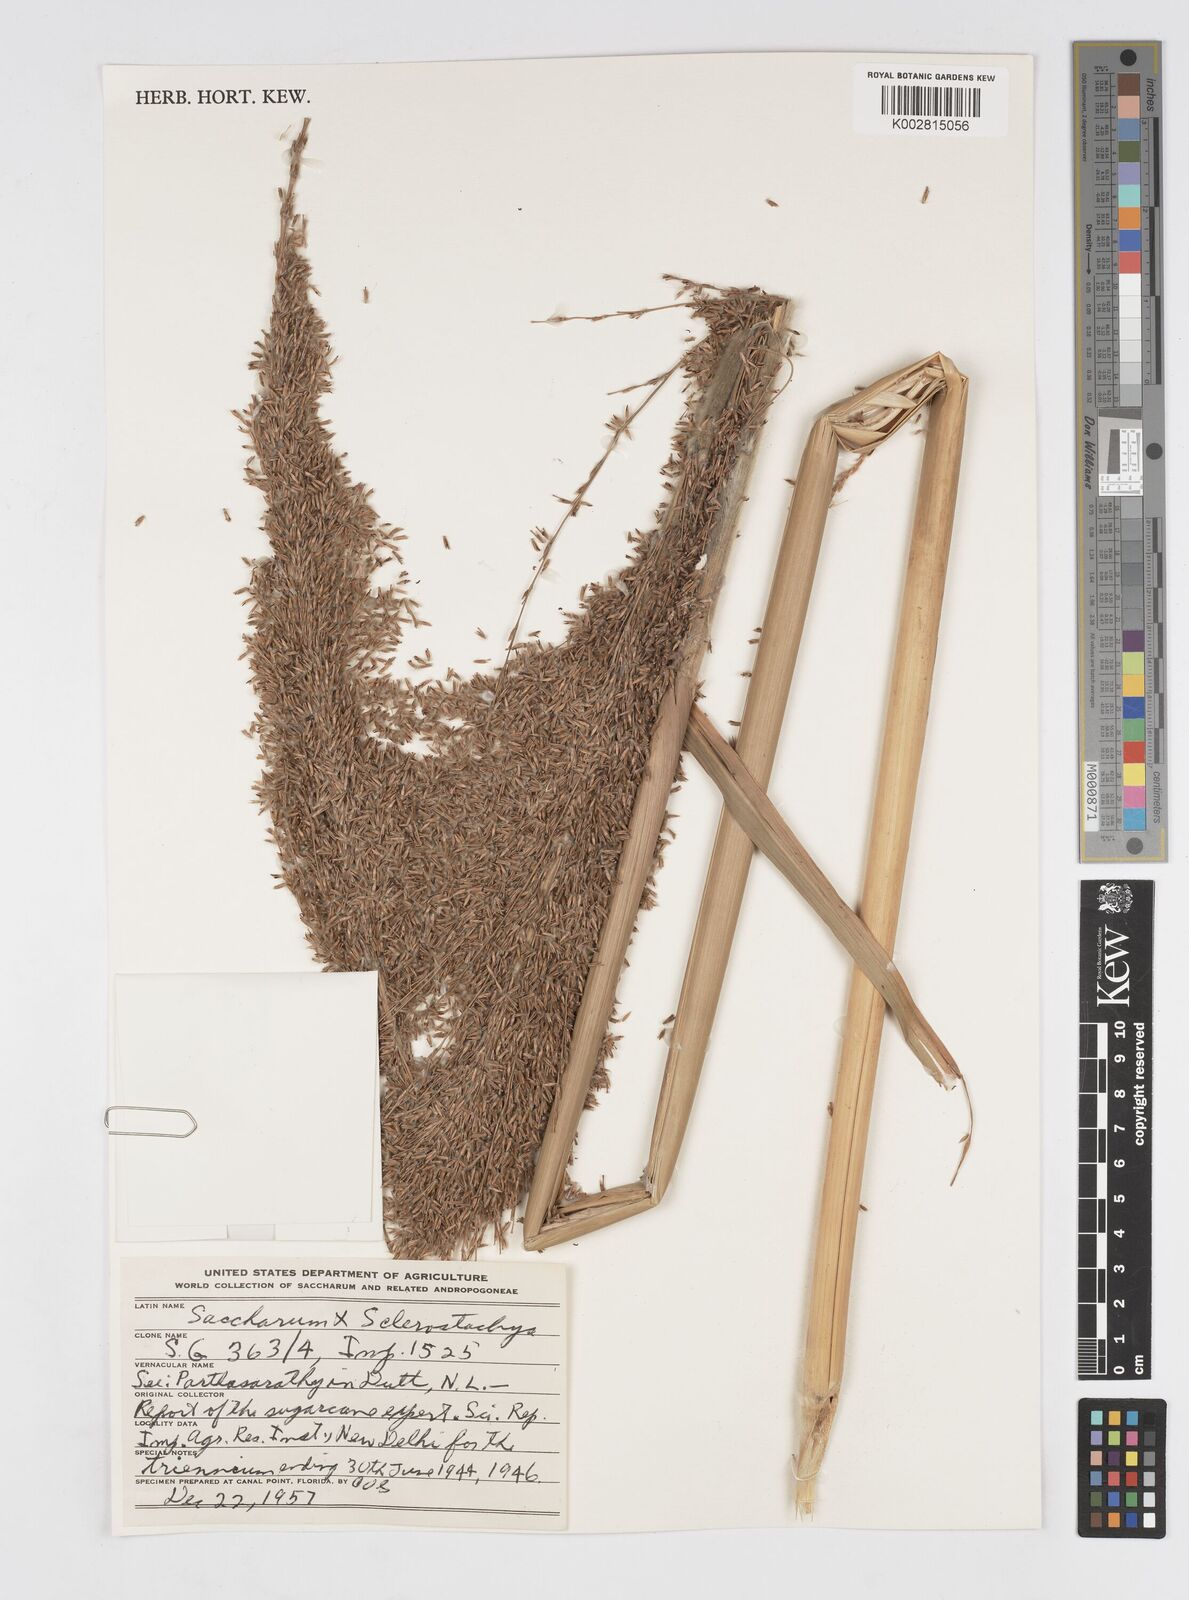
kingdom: Plantae
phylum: Tracheophyta
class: Liliopsida
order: Poales
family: Poaceae
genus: Saccharum
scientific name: Saccharum
